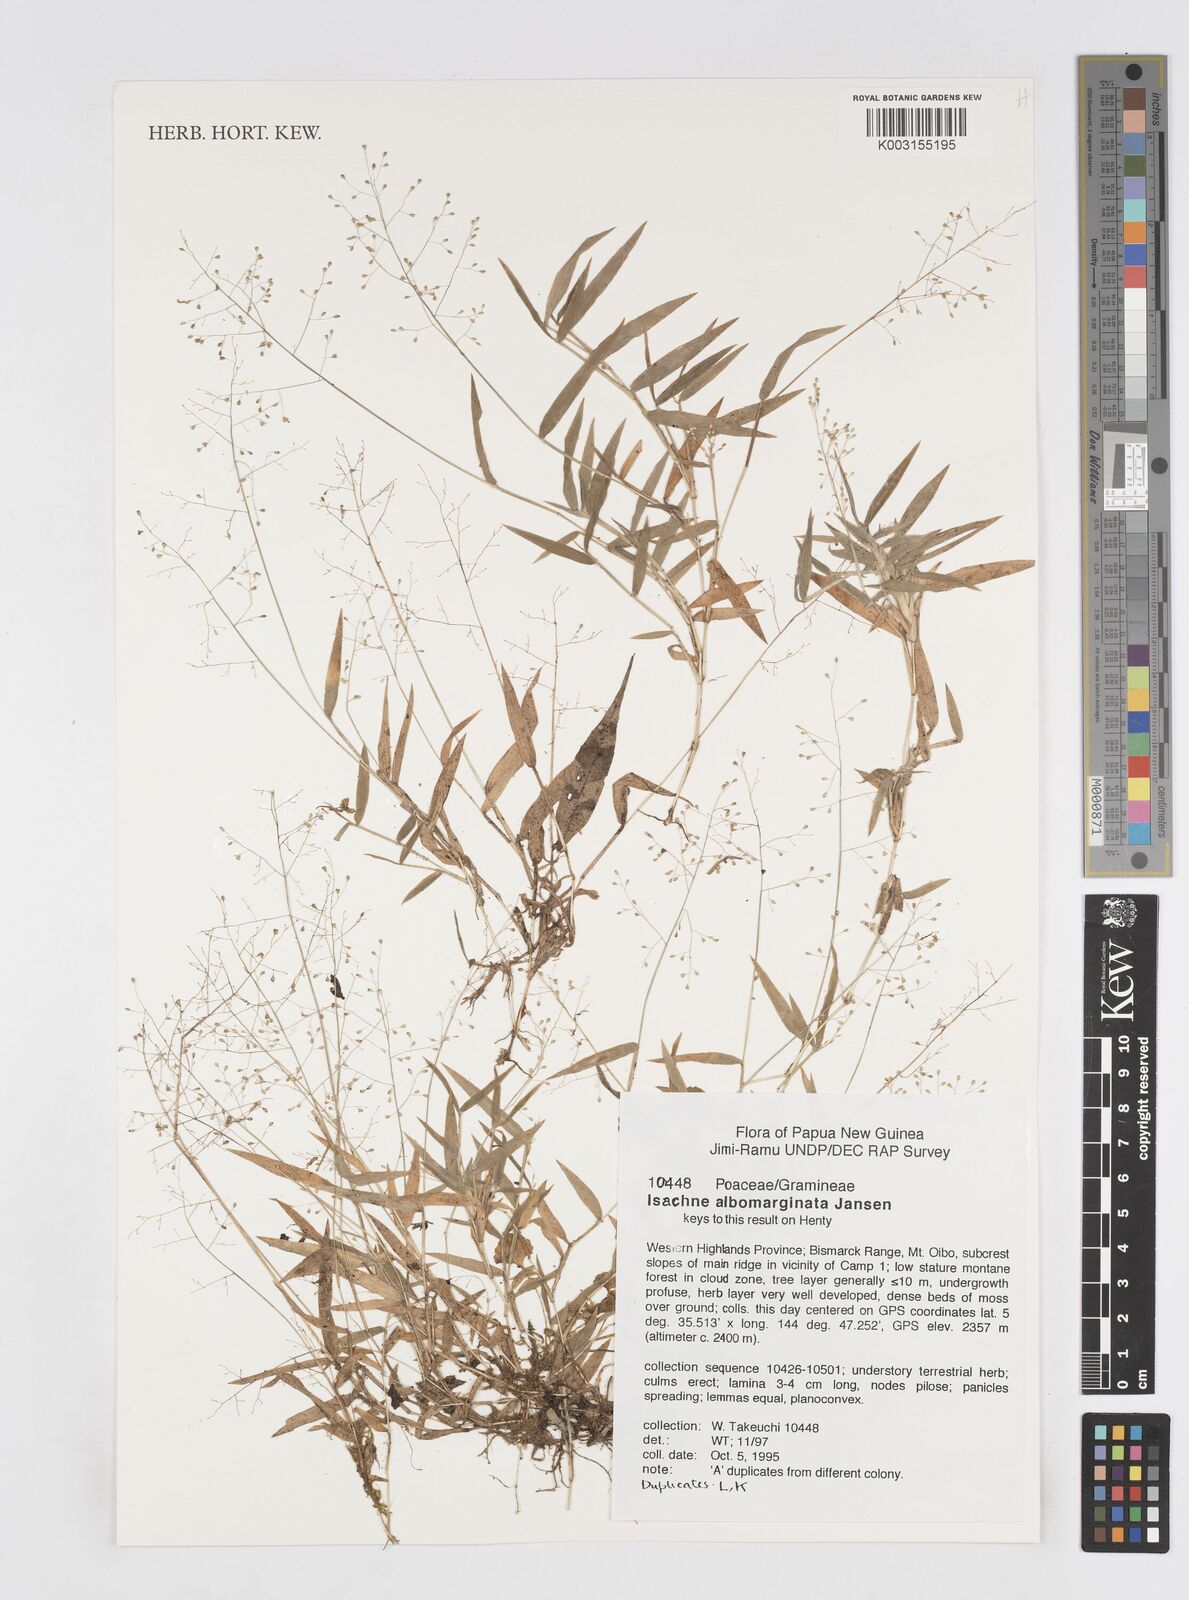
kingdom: Plantae
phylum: Tracheophyta
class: Liliopsida
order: Poales
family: Poaceae
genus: Isachne
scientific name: Isachne clarkei
